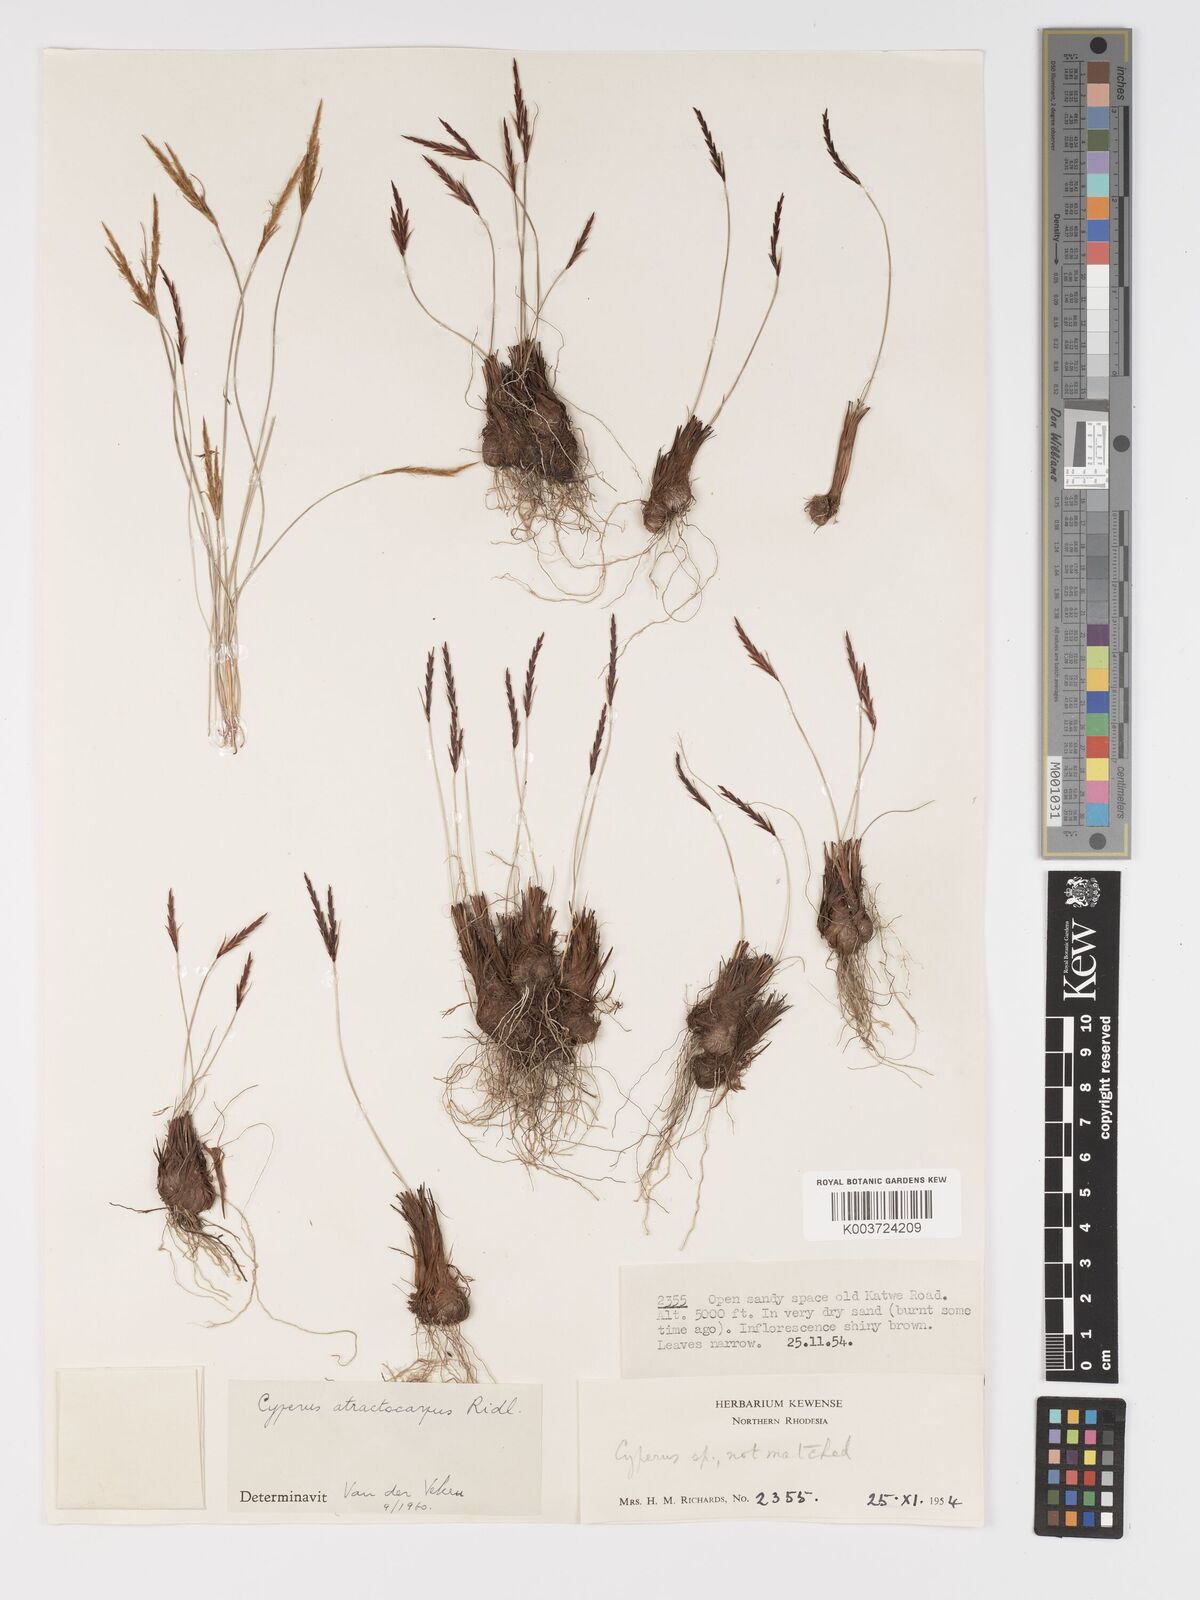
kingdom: Plantae
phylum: Tracheophyta
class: Liliopsida
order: Poales
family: Cyperaceae
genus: Cyperus
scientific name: Cyperus atractocarpus
